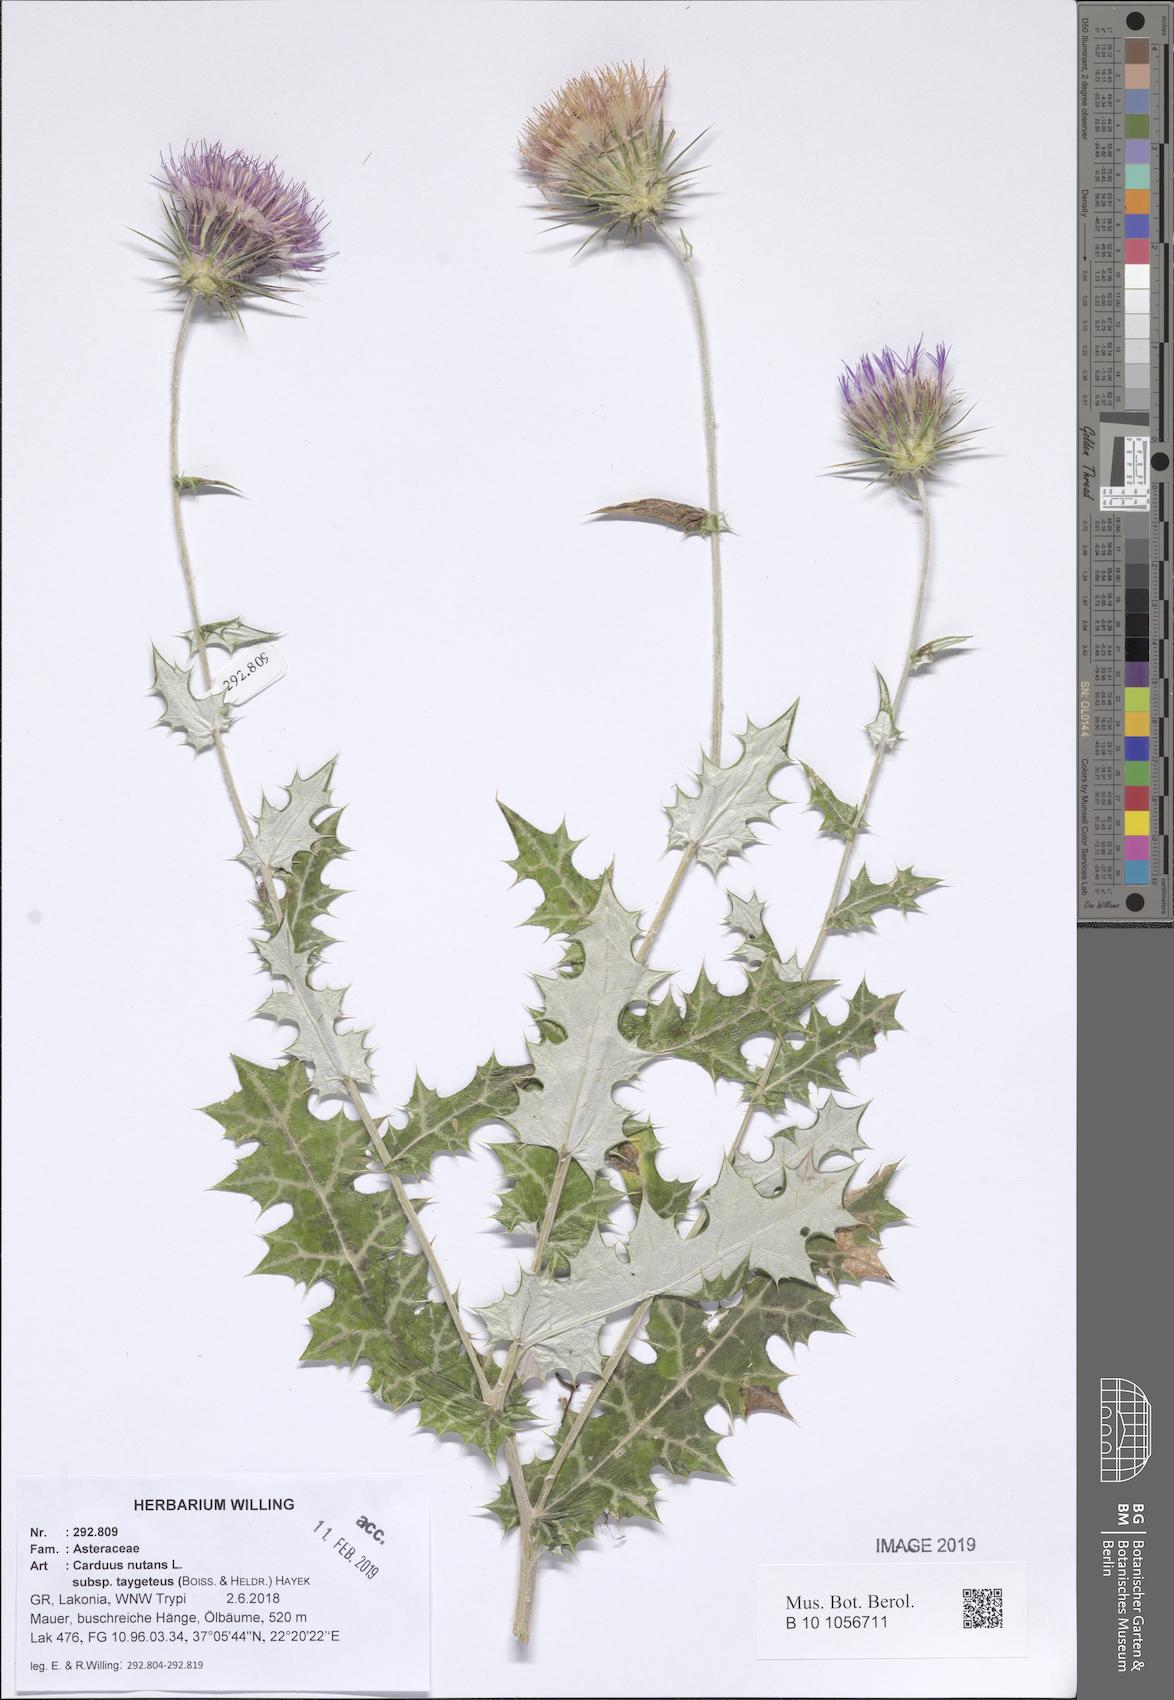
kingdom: Plantae
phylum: Tracheophyta
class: Magnoliopsida
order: Asterales
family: Asteraceae
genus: Carduus
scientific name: Carduus nutans
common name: Musk thistle
